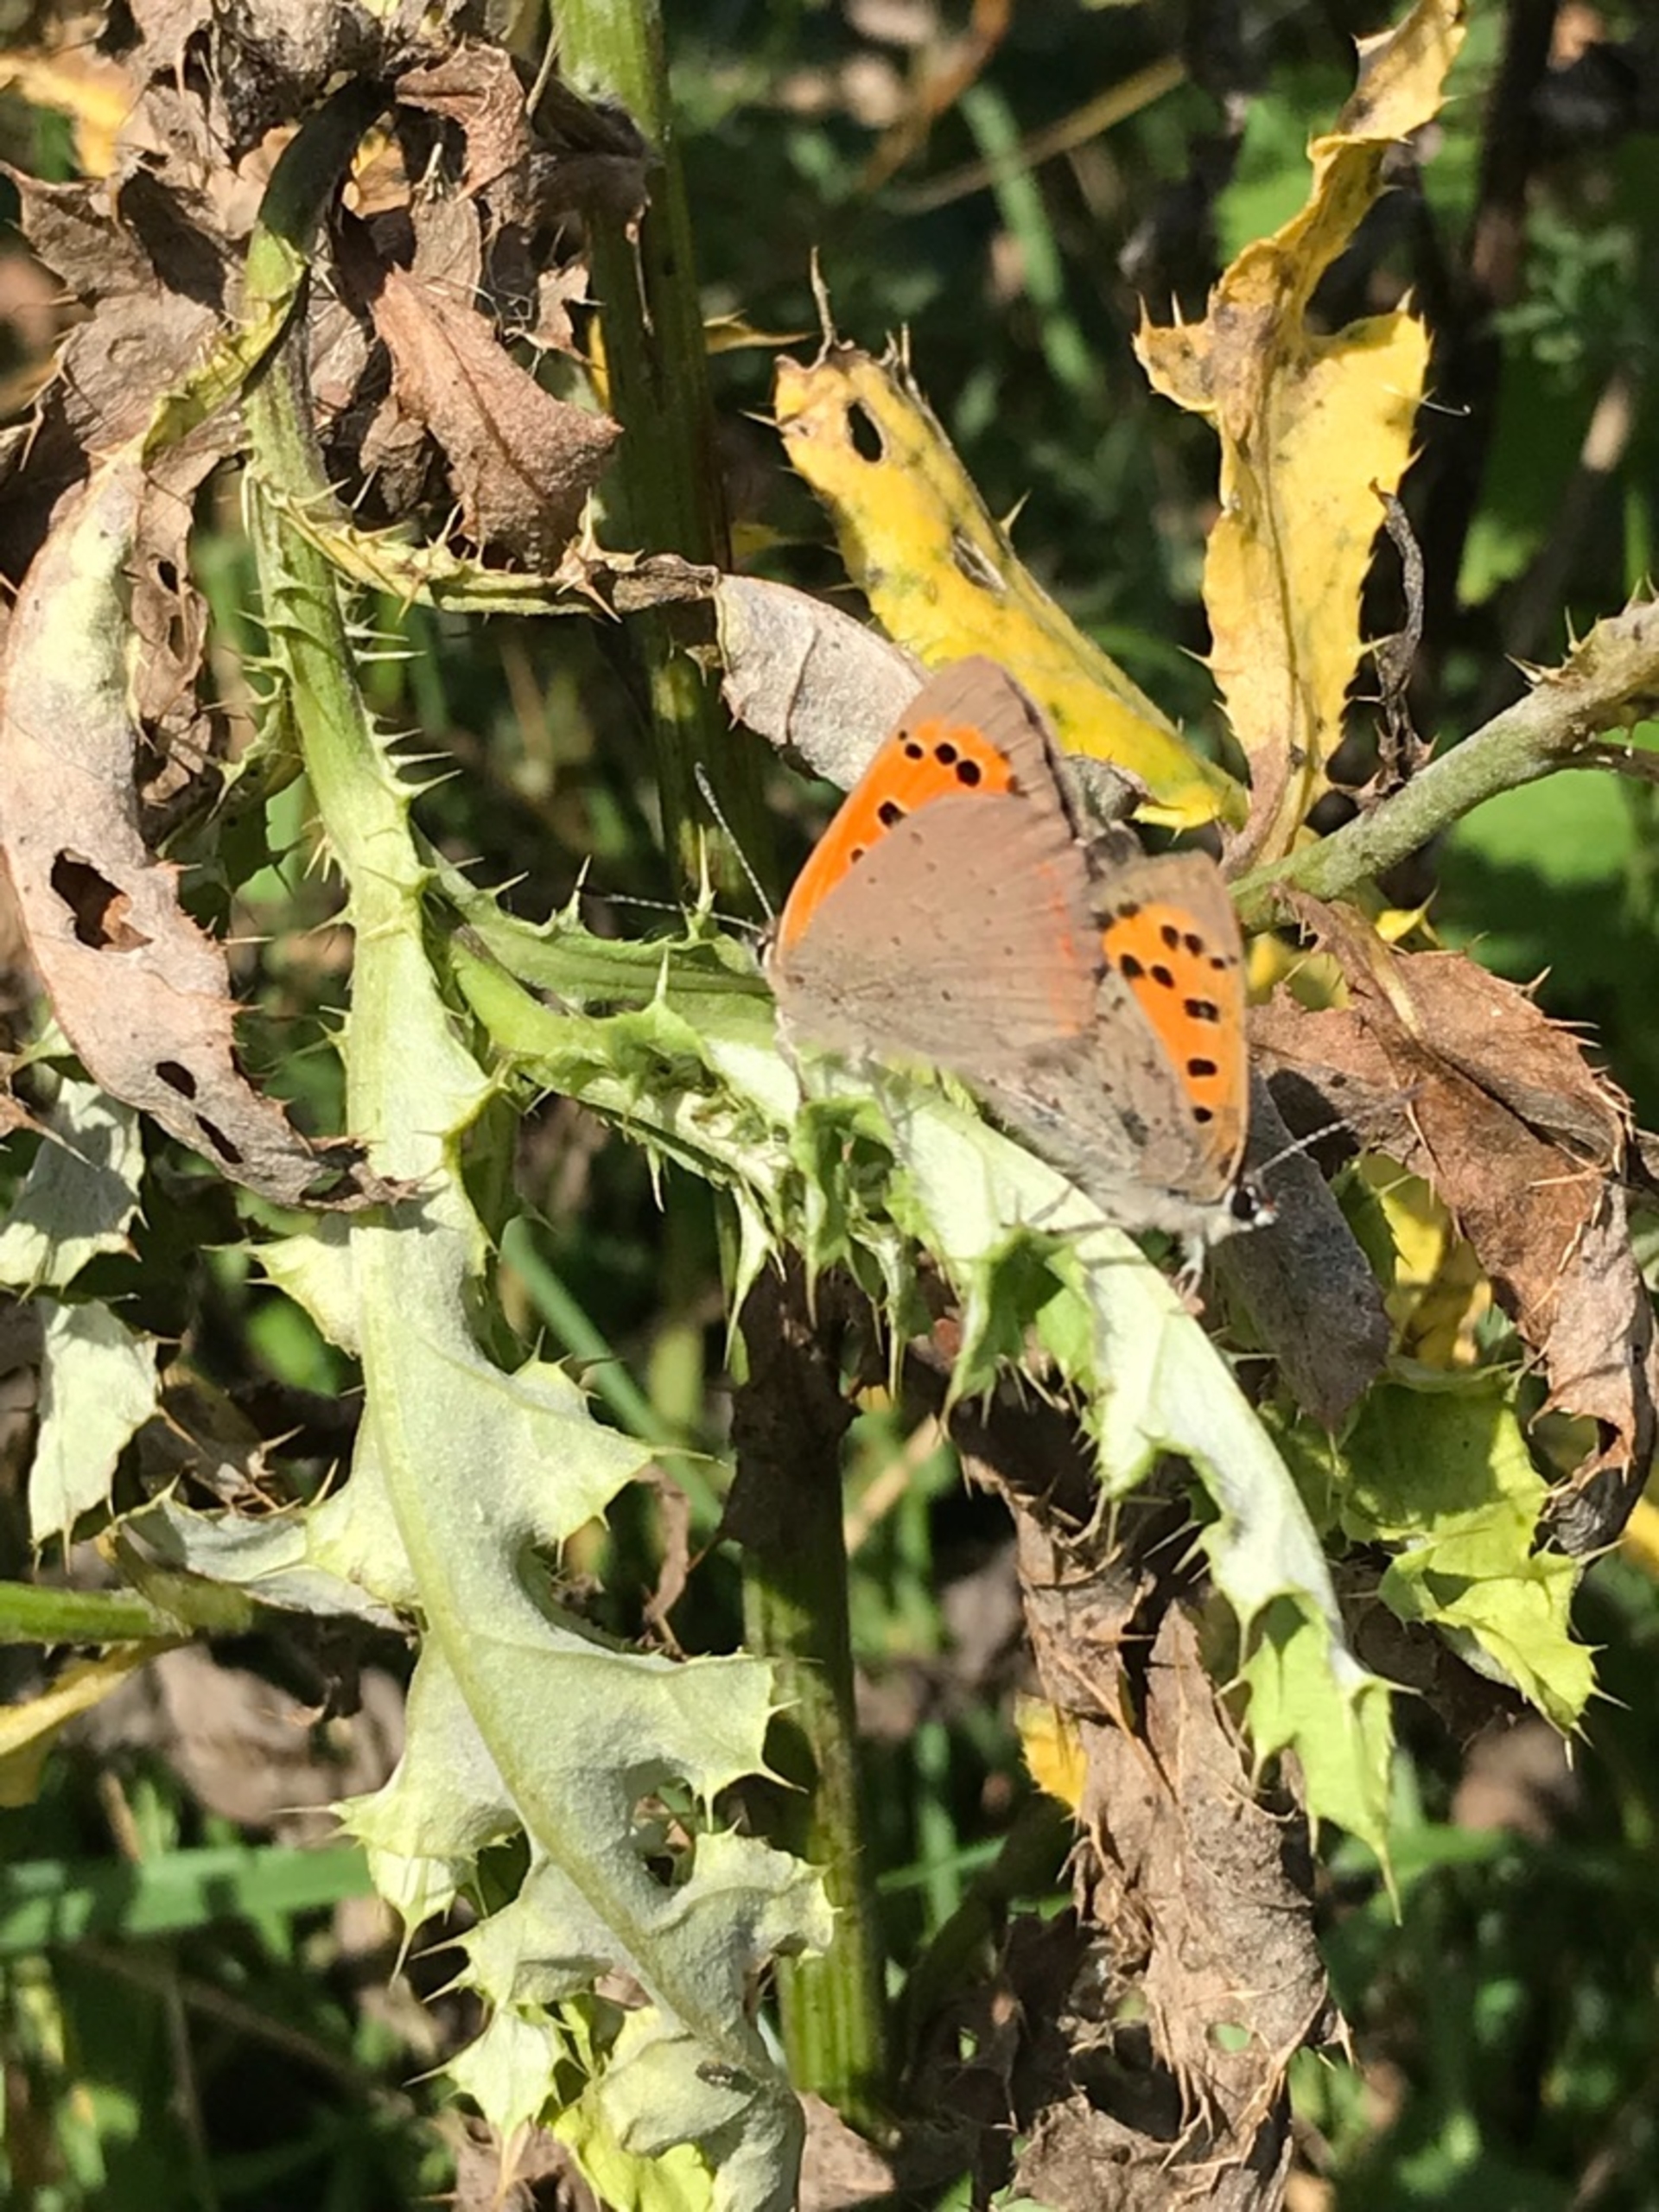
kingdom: Animalia
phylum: Arthropoda
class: Insecta
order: Lepidoptera
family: Lycaenidae
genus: Lycaena
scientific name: Lycaena phlaeas
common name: Lille ildfugl
